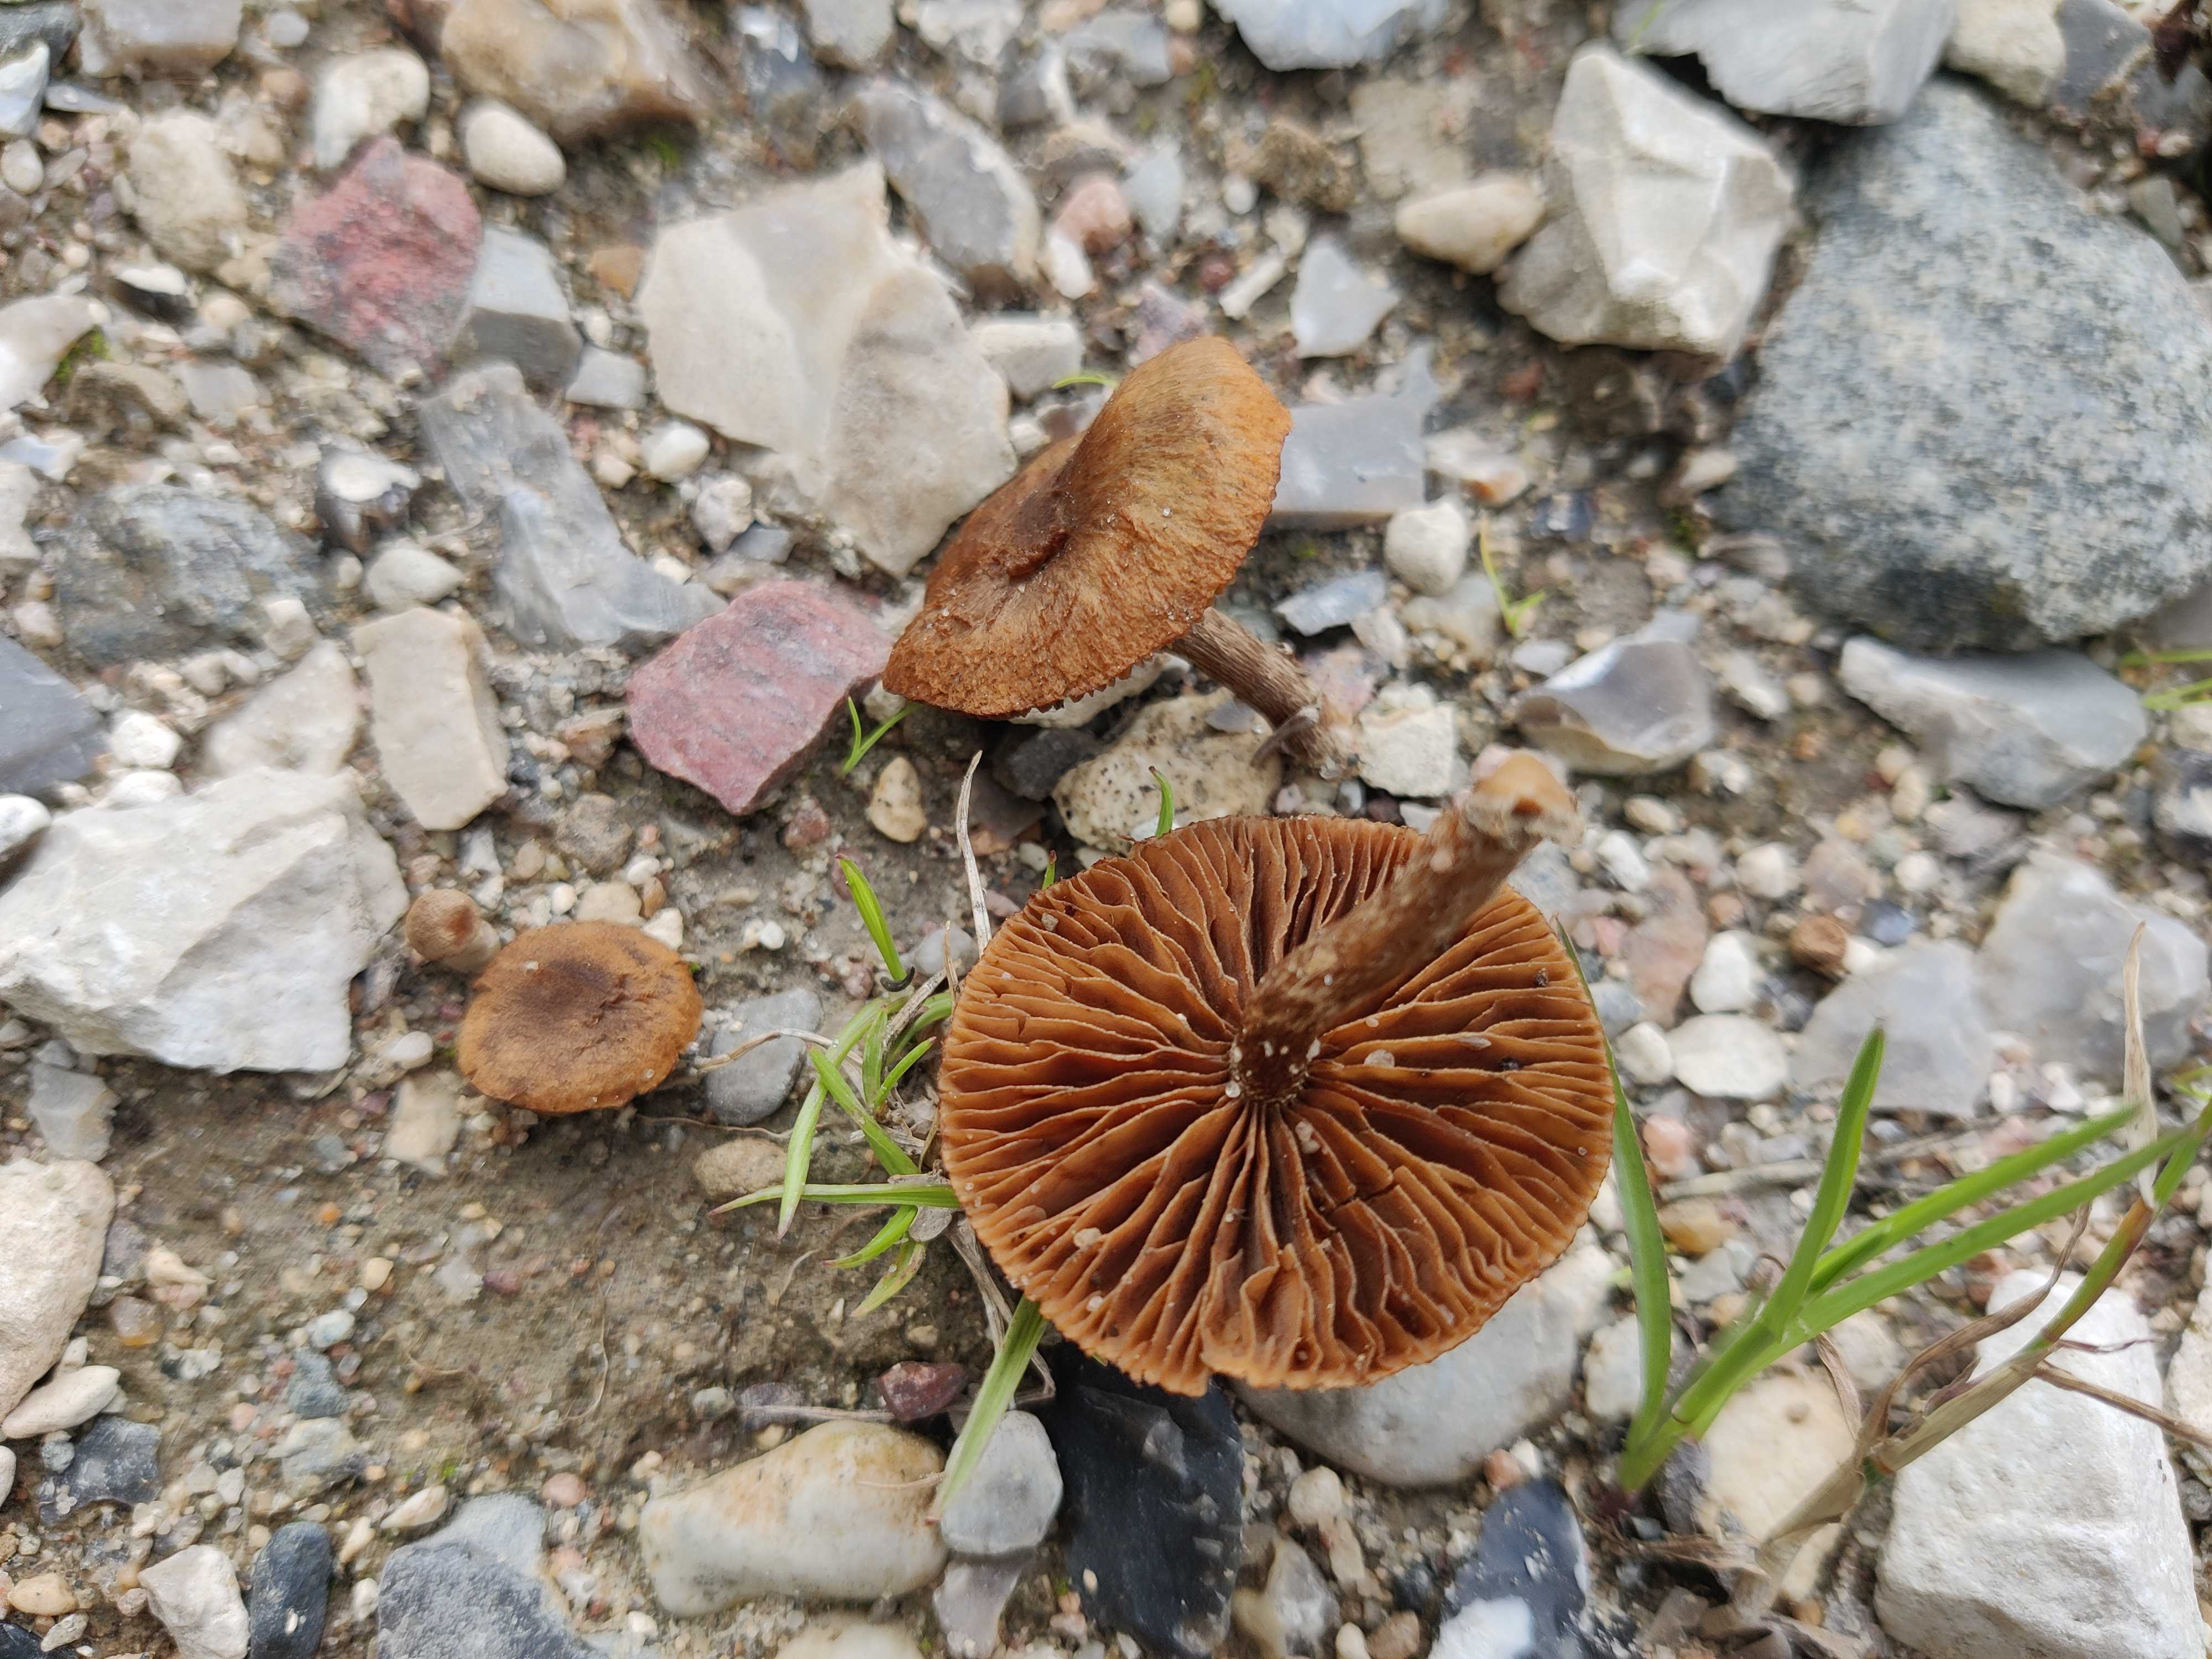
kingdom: Fungi
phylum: Basidiomycota
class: Agaricomycetes
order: Agaricales
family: Inocybaceae
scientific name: Inocybaceae
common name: trævlhatfamilien
